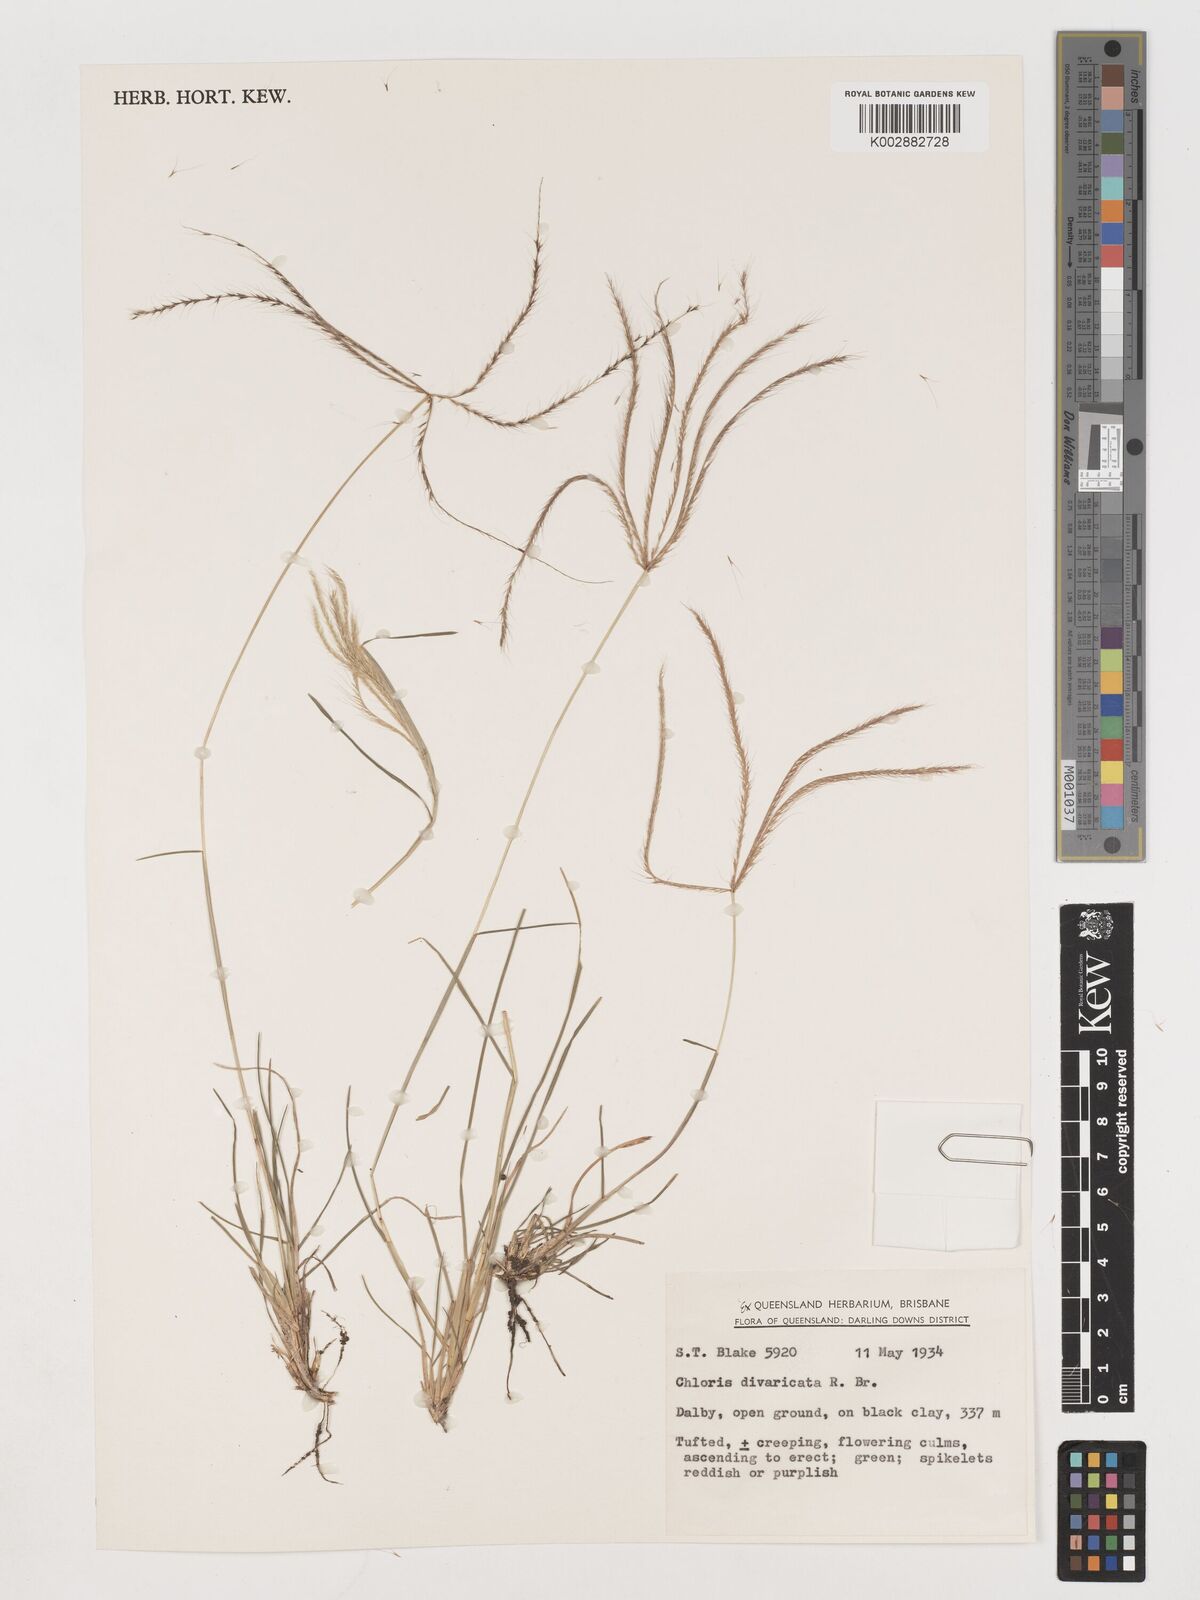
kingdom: Plantae
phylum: Tracheophyta
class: Liliopsida
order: Poales
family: Poaceae
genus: Chloris
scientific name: Chloris divaricata
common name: Spreading windmill grass
